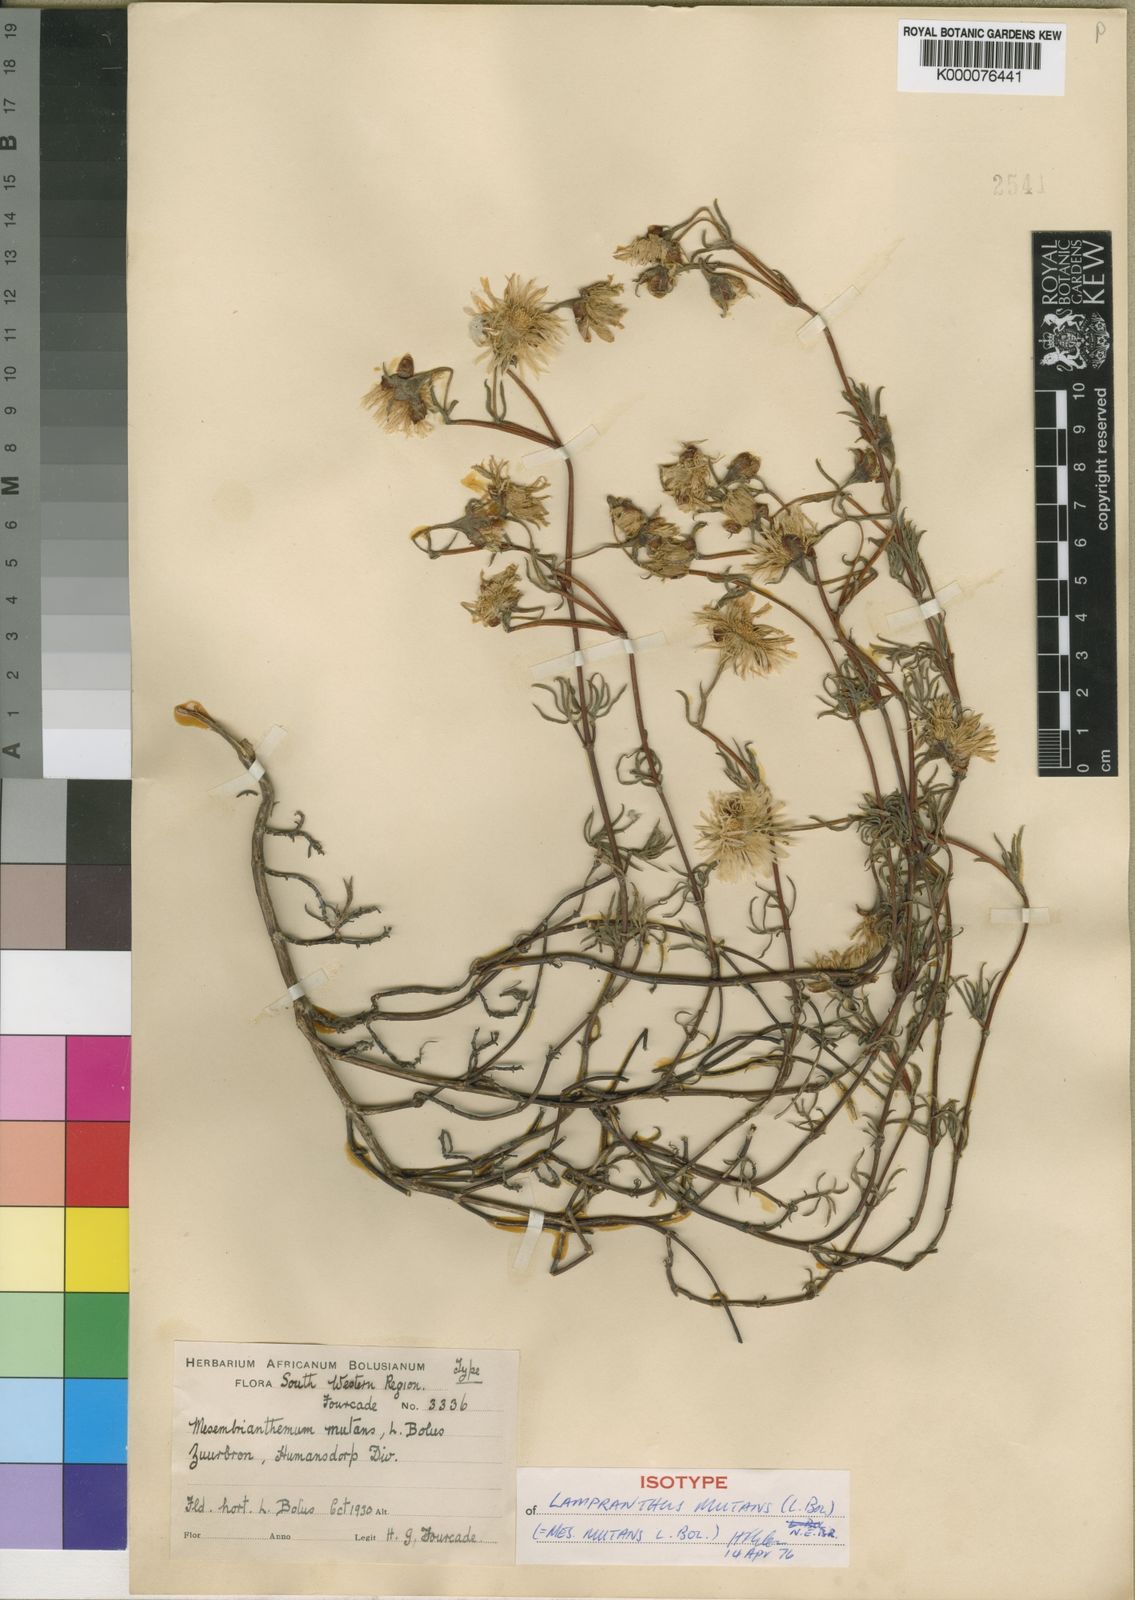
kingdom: Plantae
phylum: Tracheophyta
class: Magnoliopsida
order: Caryophyllales
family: Aizoaceae
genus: Lampranthus
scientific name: Lampranthus mutans
